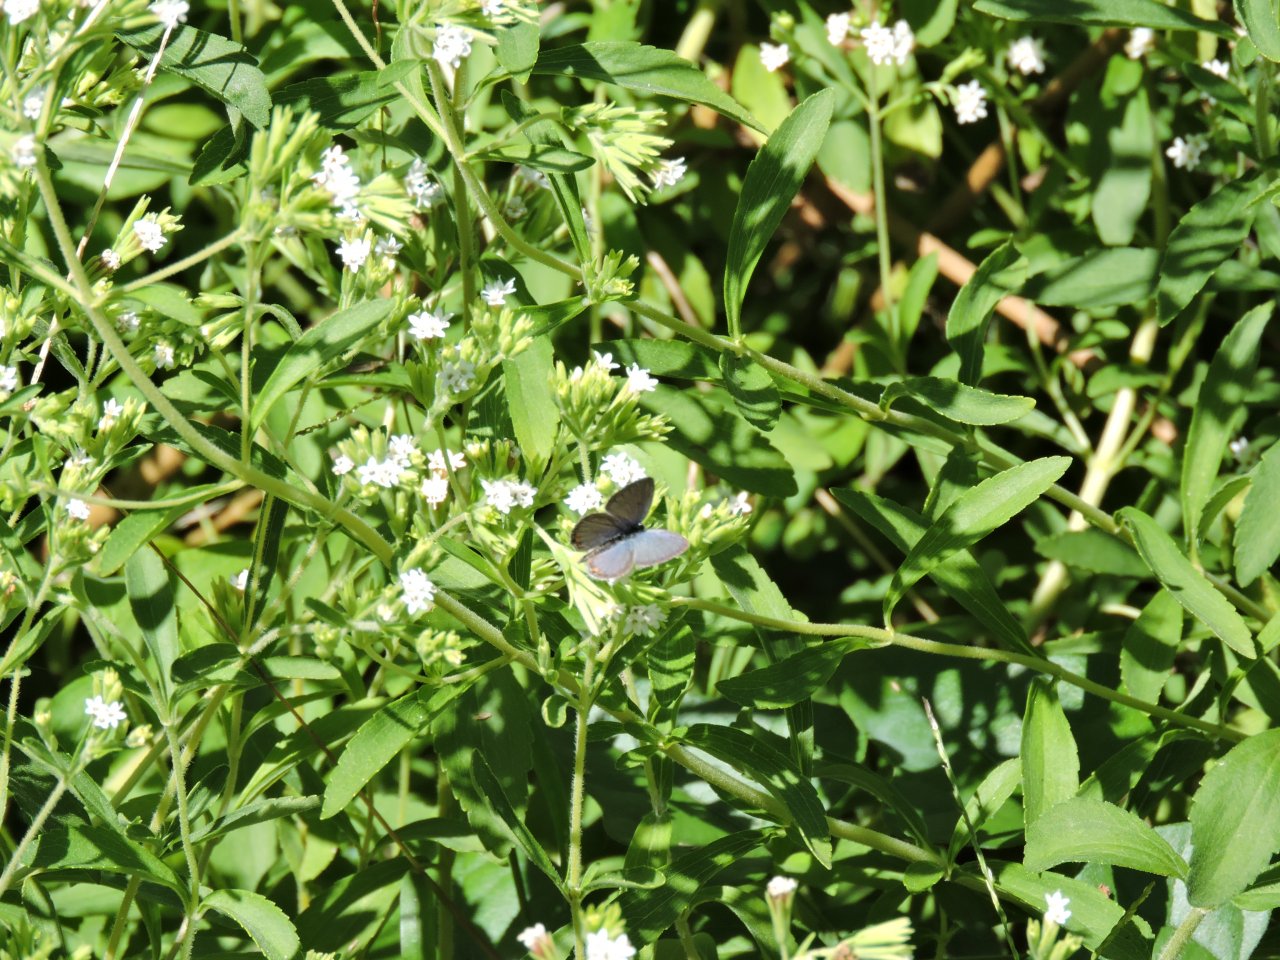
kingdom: Animalia
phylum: Arthropoda
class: Insecta
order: Lepidoptera
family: Lycaenidae
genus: Elkalyce
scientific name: Elkalyce comyntas
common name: Eastern Tailed-Blue
